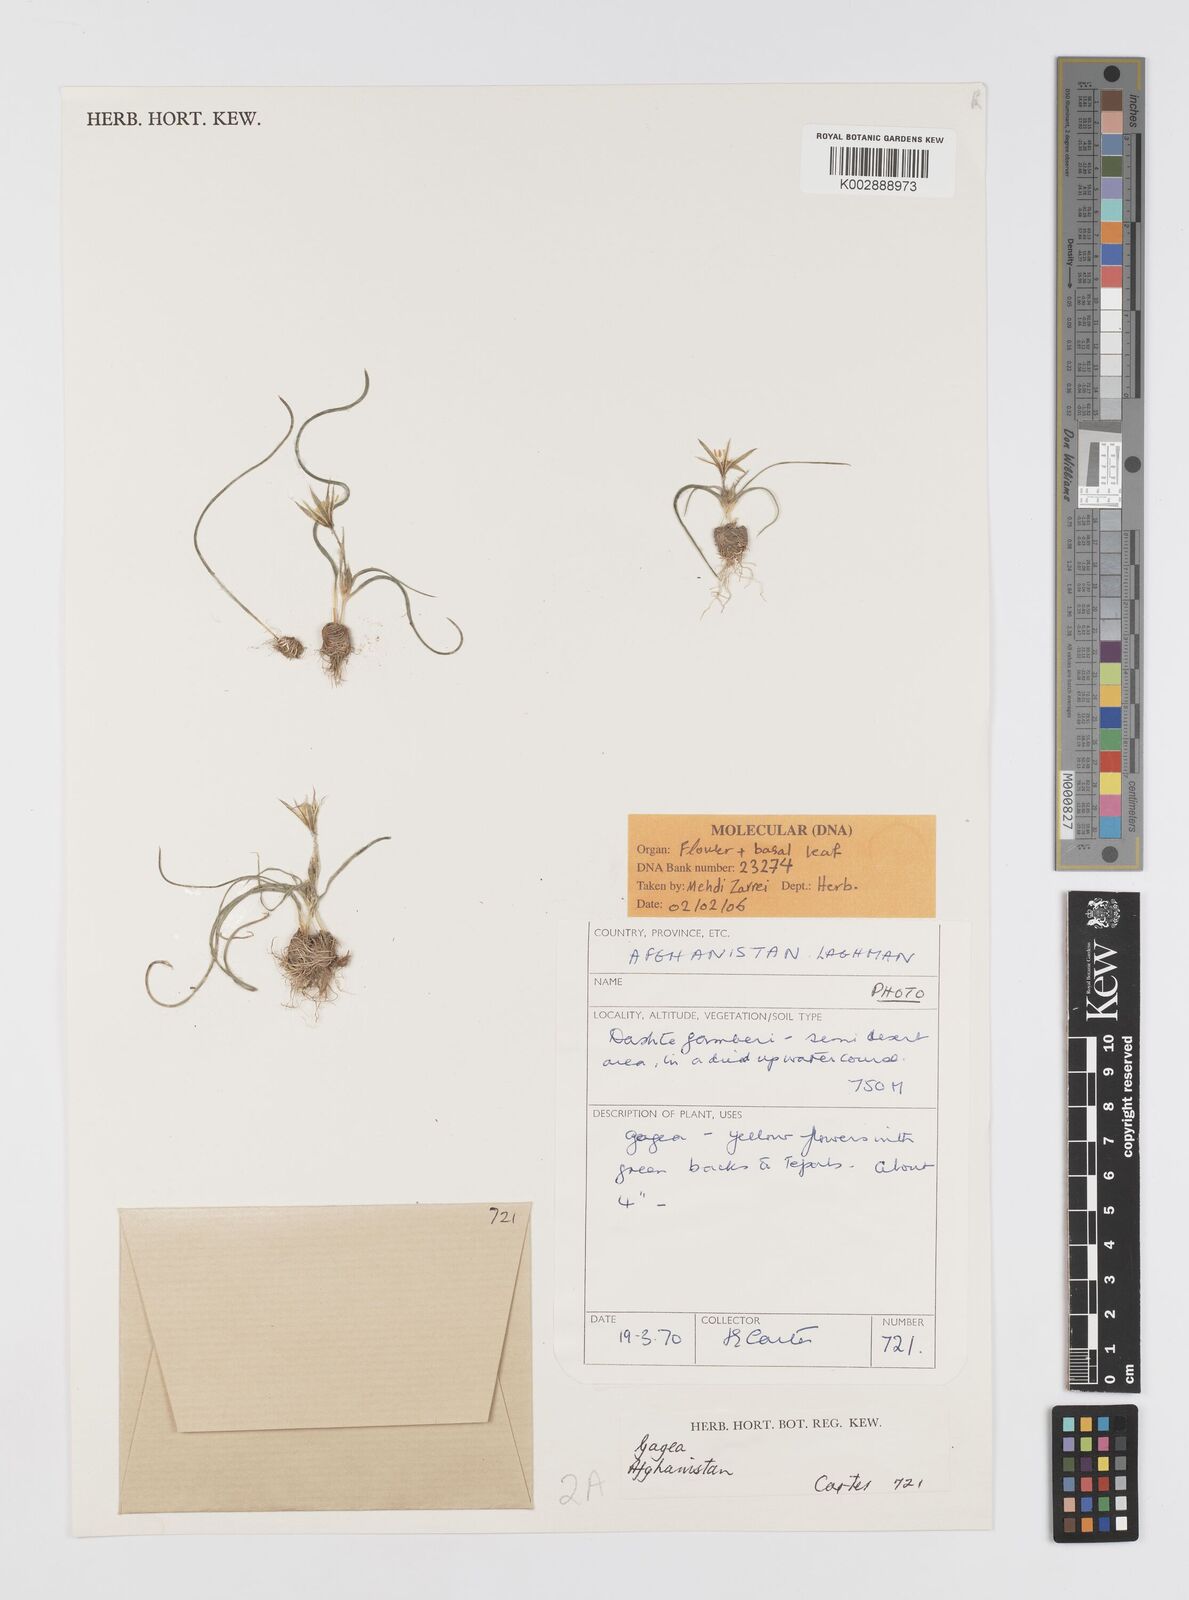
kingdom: Plantae
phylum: Tracheophyta
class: Liliopsida
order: Liliales
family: Liliaceae
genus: Gagea
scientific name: Gagea
